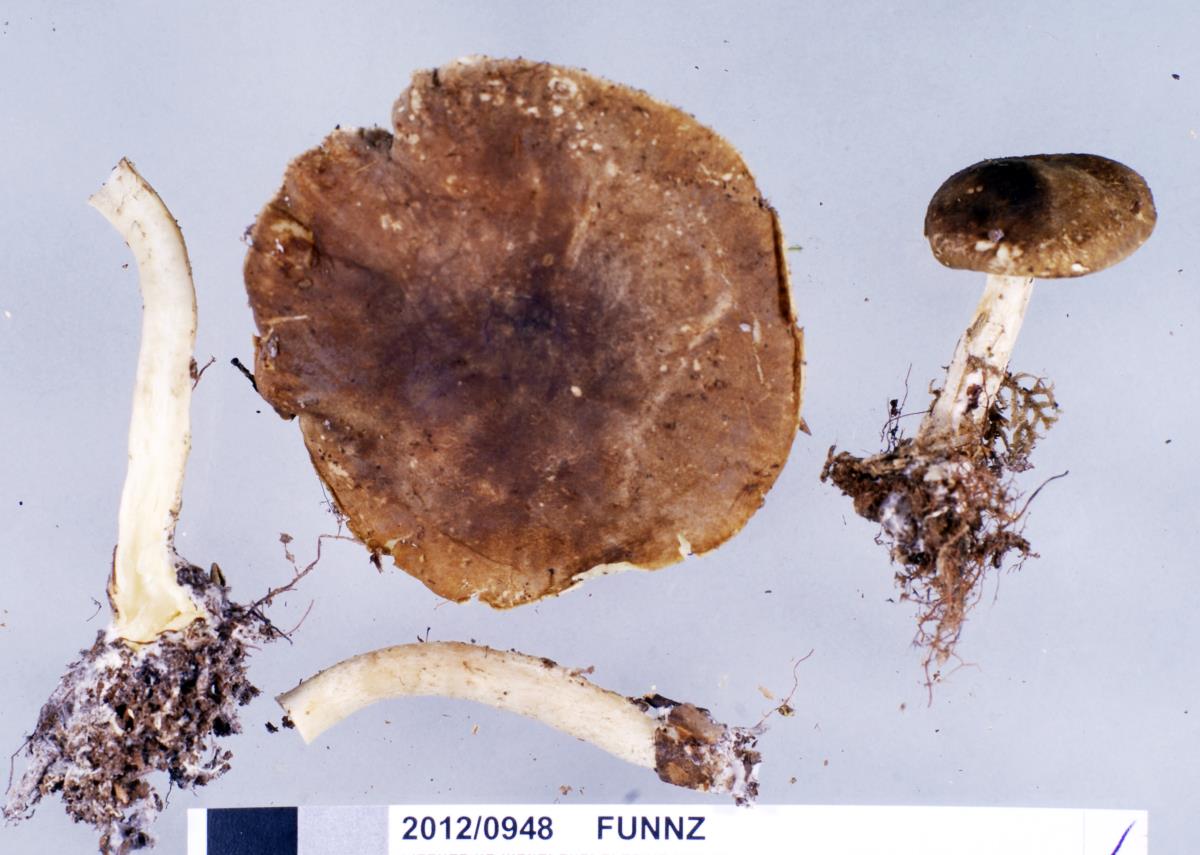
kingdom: Fungi
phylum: Basidiomycota
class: Agaricomycetes
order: Agaricales
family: Tricholomataceae
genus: Clitocybe
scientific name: Clitocybe eucalyptorum
